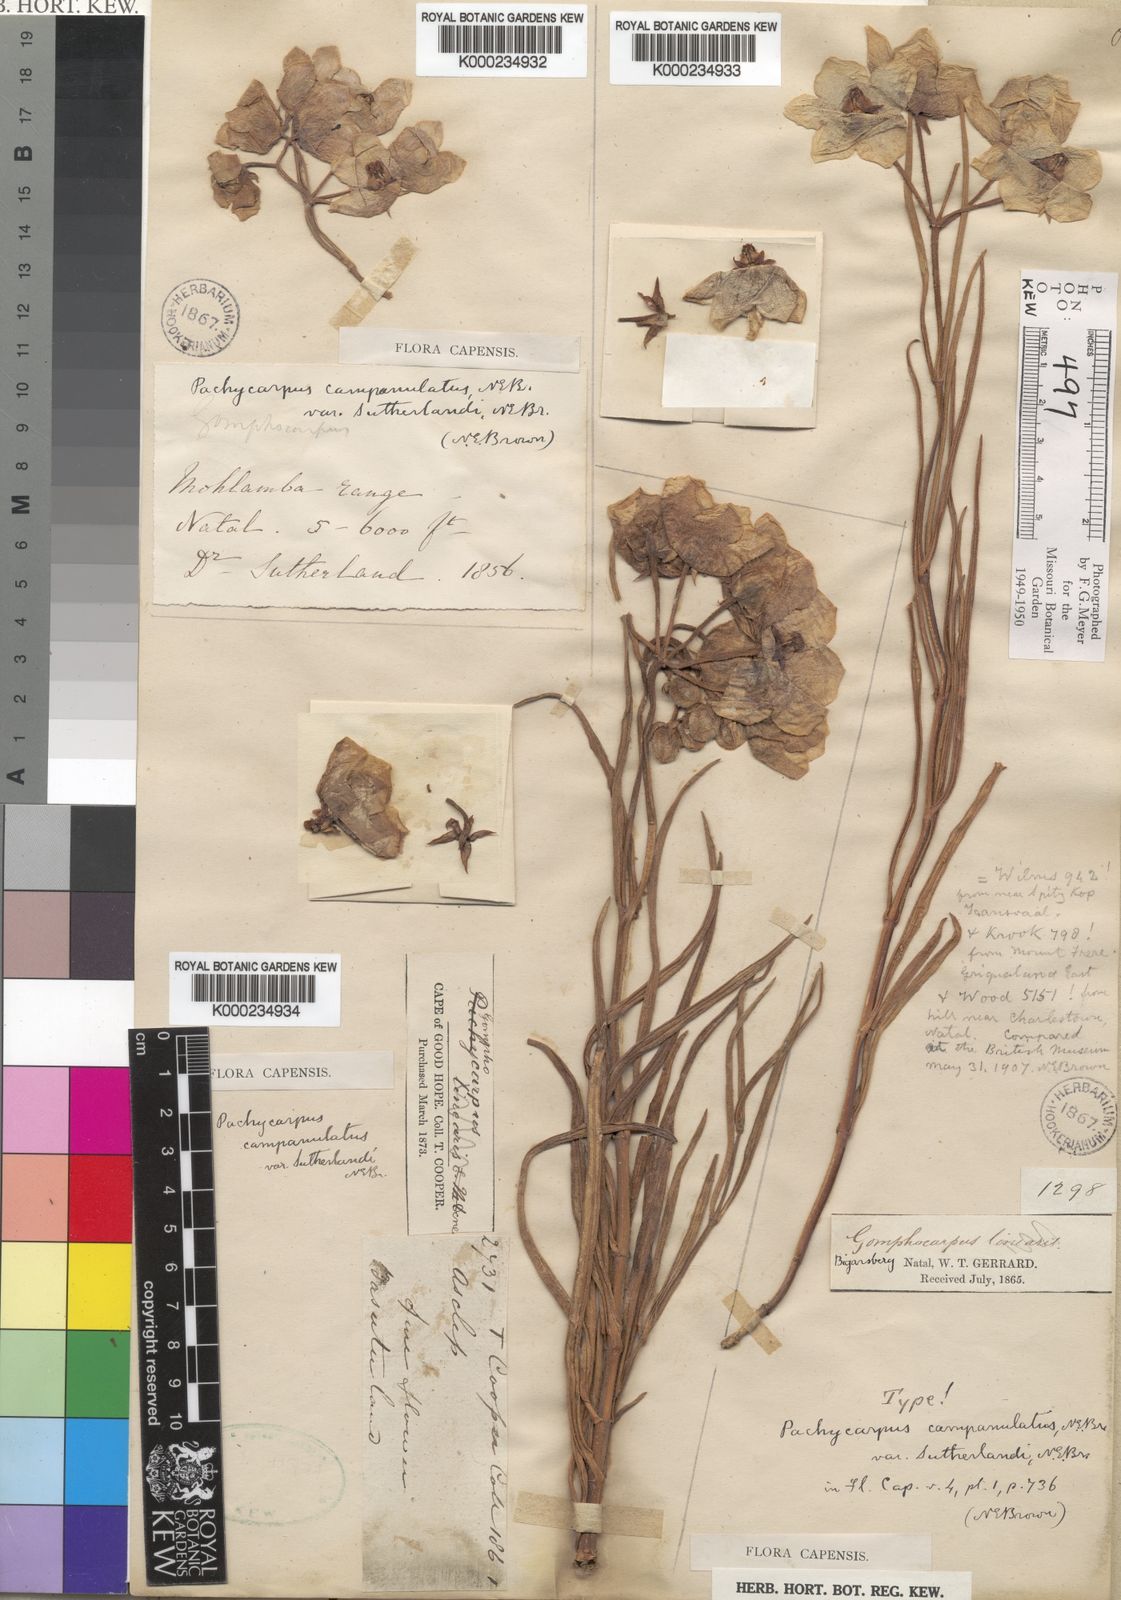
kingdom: Plantae
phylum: Tracheophyta
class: Magnoliopsida
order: Gentianales
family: Apocynaceae
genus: Pachycarpus
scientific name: Pachycarpus campanulatus
